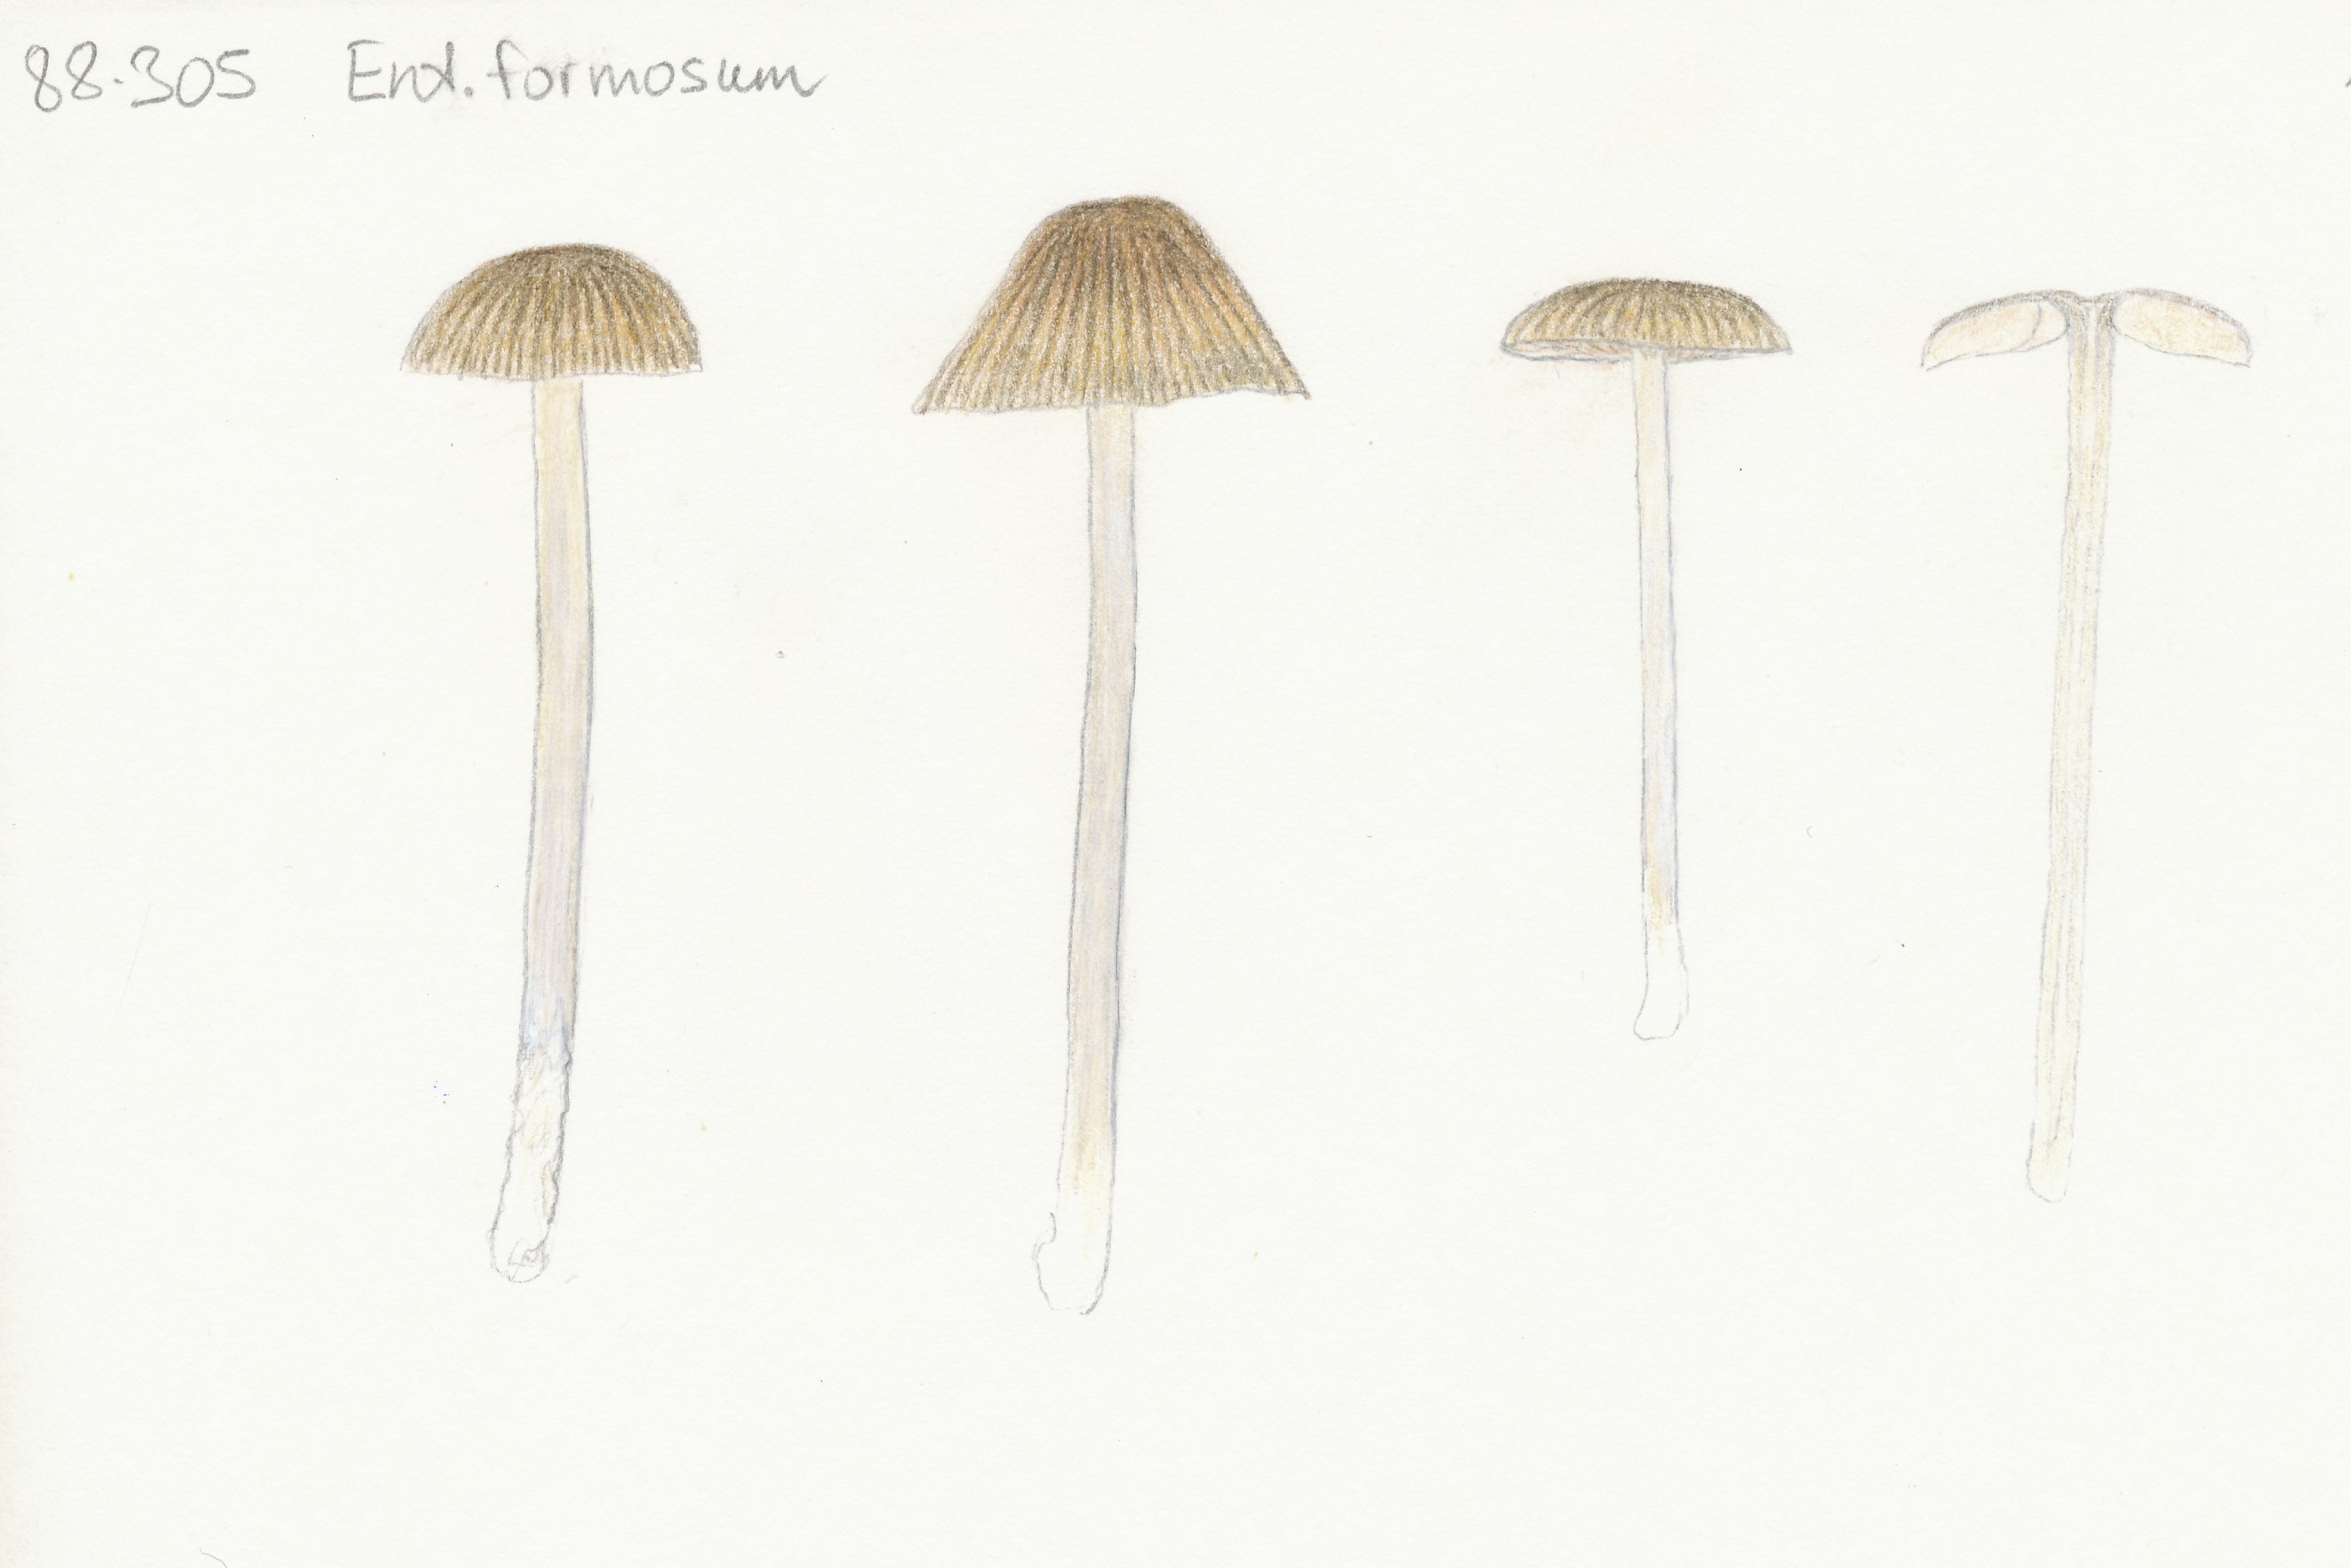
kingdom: Fungi
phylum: Basidiomycota
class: Agaricomycetes
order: Agaricales
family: Entolomataceae
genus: Entoloma
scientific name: Entoloma formosum
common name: brungul rødblad
